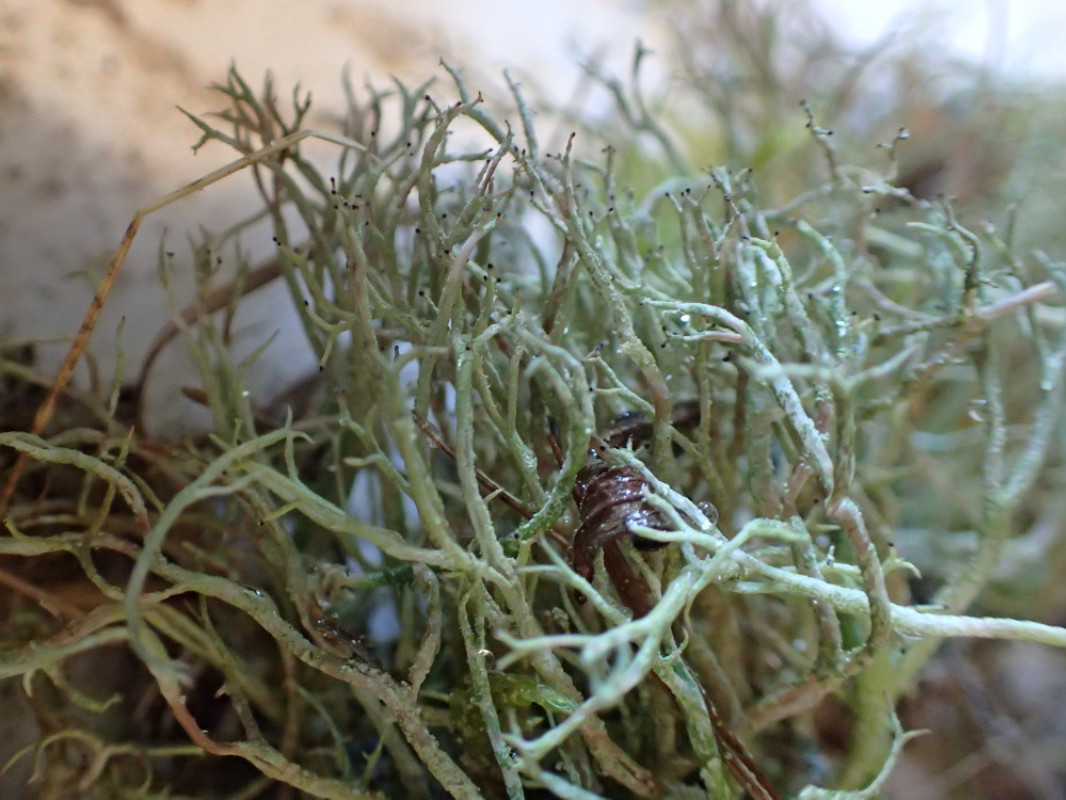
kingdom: Fungi
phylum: Ascomycota
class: Lecanoromycetes
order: Lecanorales
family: Cladoniaceae
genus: Cladonia
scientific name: Cladonia furcata
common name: kløftet bægerlav
